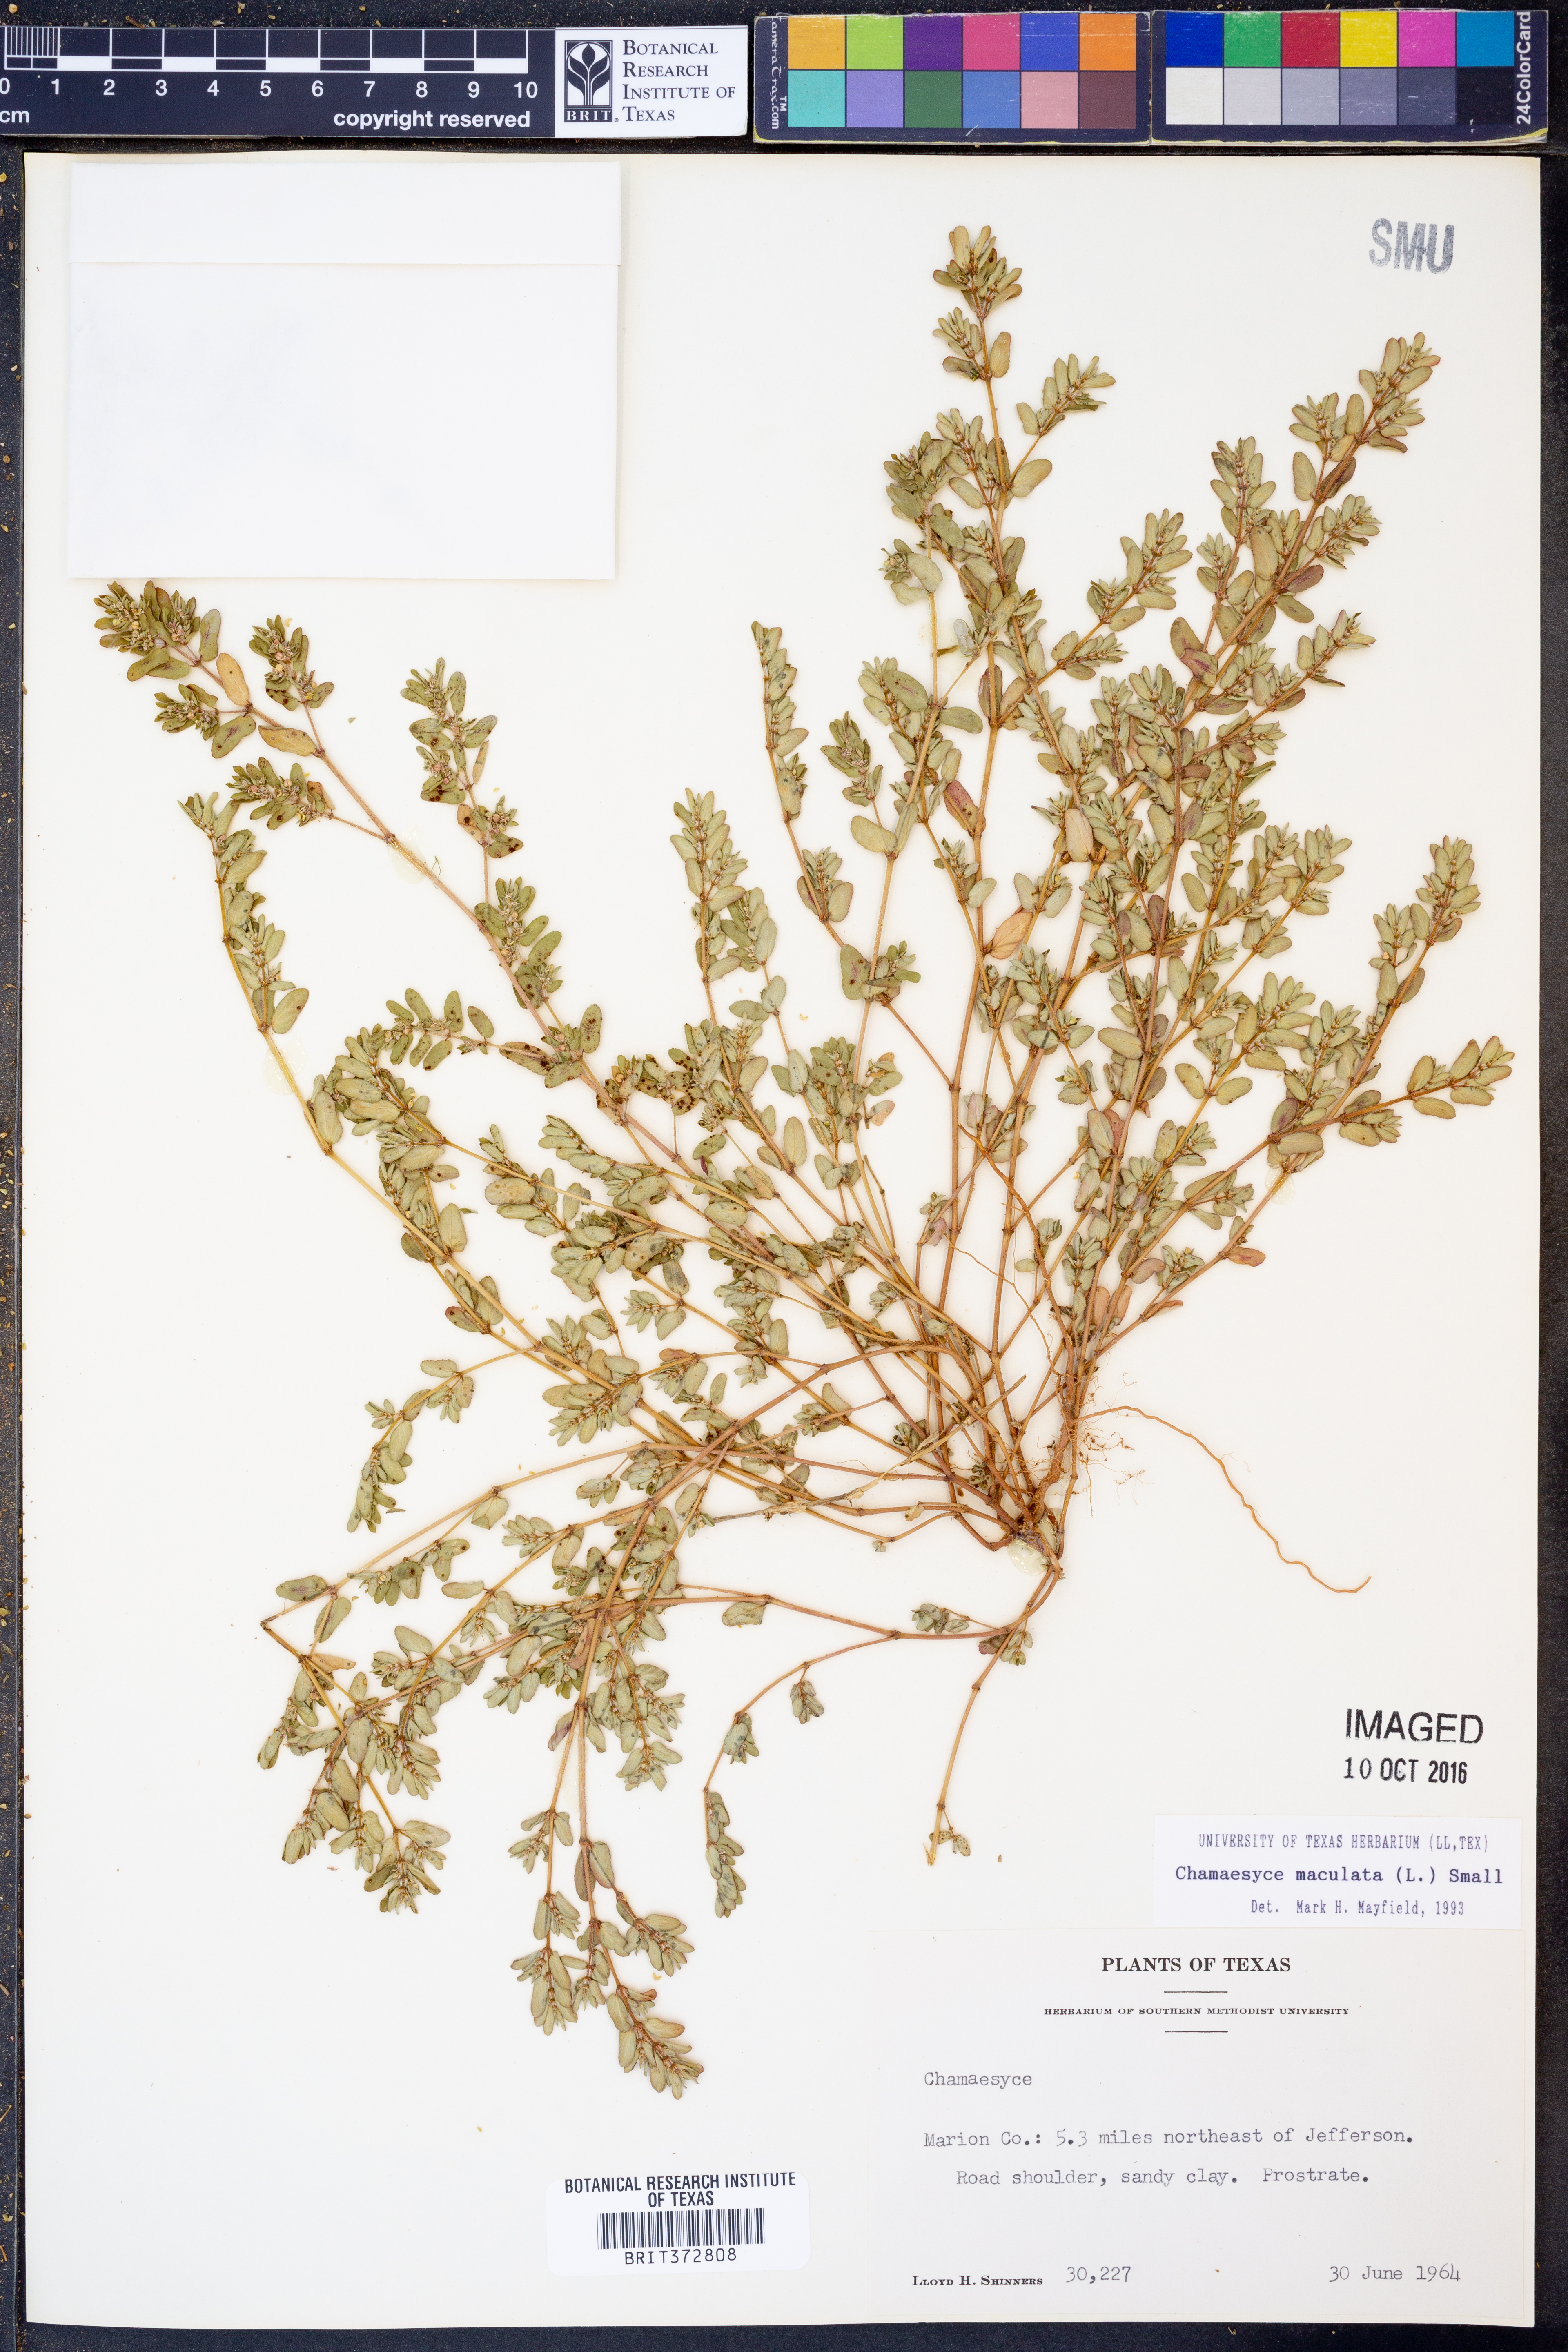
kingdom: Plantae
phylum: Tracheophyta
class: Magnoliopsida
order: Malpighiales
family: Euphorbiaceae
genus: Euphorbia
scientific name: Euphorbia maculata
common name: Spotted spurge
